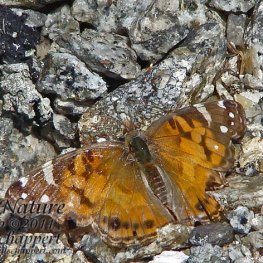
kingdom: Animalia
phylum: Arthropoda
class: Insecta
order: Lepidoptera
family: Nymphalidae
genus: Vanessa
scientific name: Vanessa virginiensis
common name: American Lady
